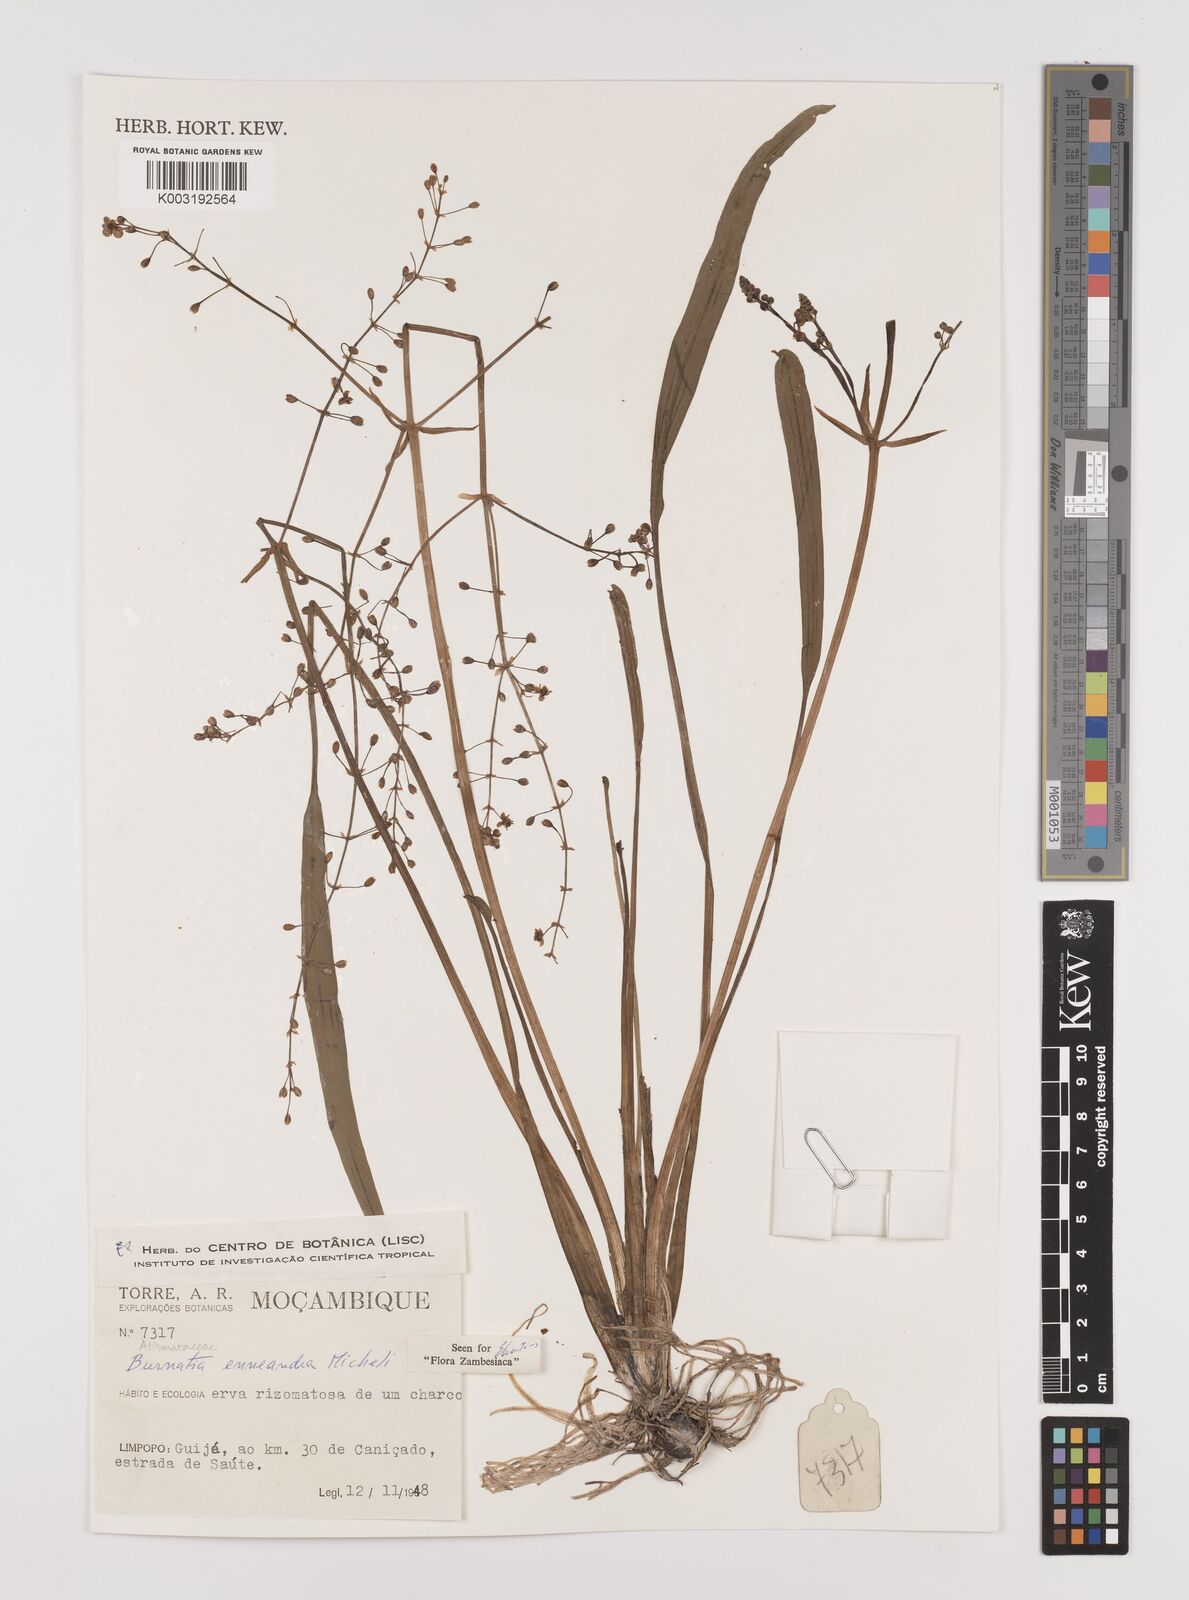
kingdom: Plantae
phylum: Tracheophyta
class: Liliopsida
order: Alismatales
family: Alismataceae
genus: Burnatia
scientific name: Burnatia enneandra
